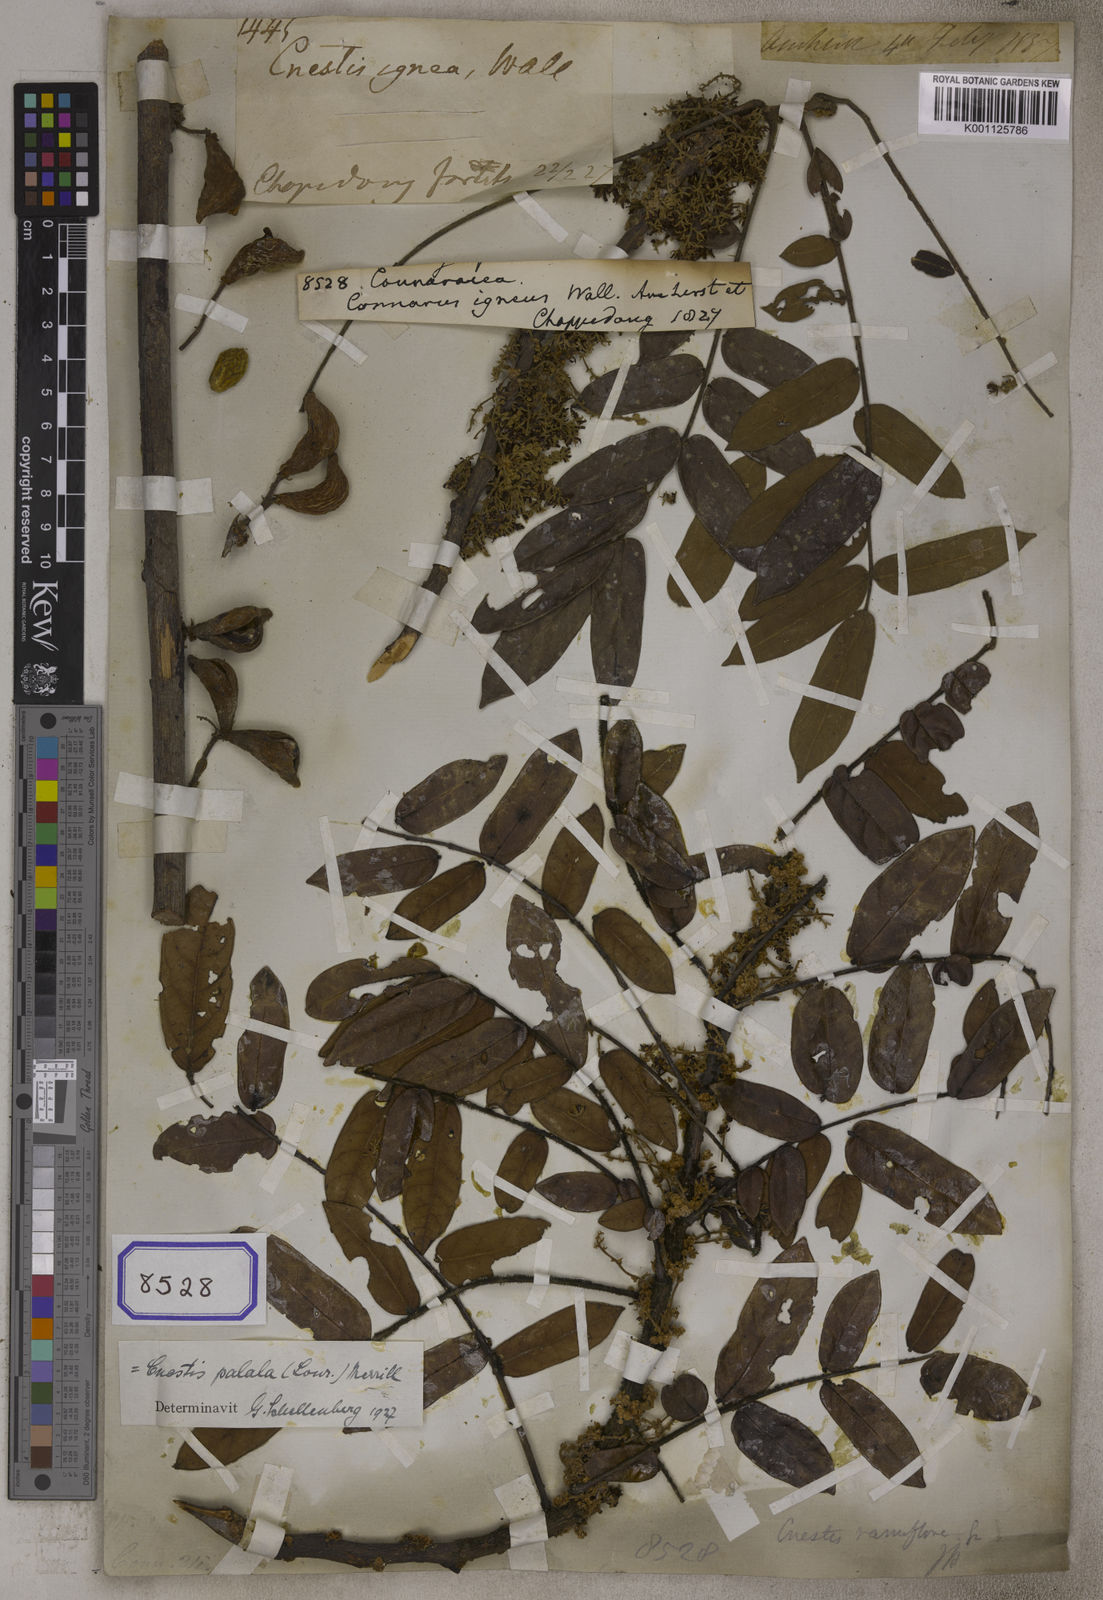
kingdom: Plantae
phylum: Tracheophyta
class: Magnoliopsida
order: Oxalidales
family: Connaraceae
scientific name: Connaraceae
